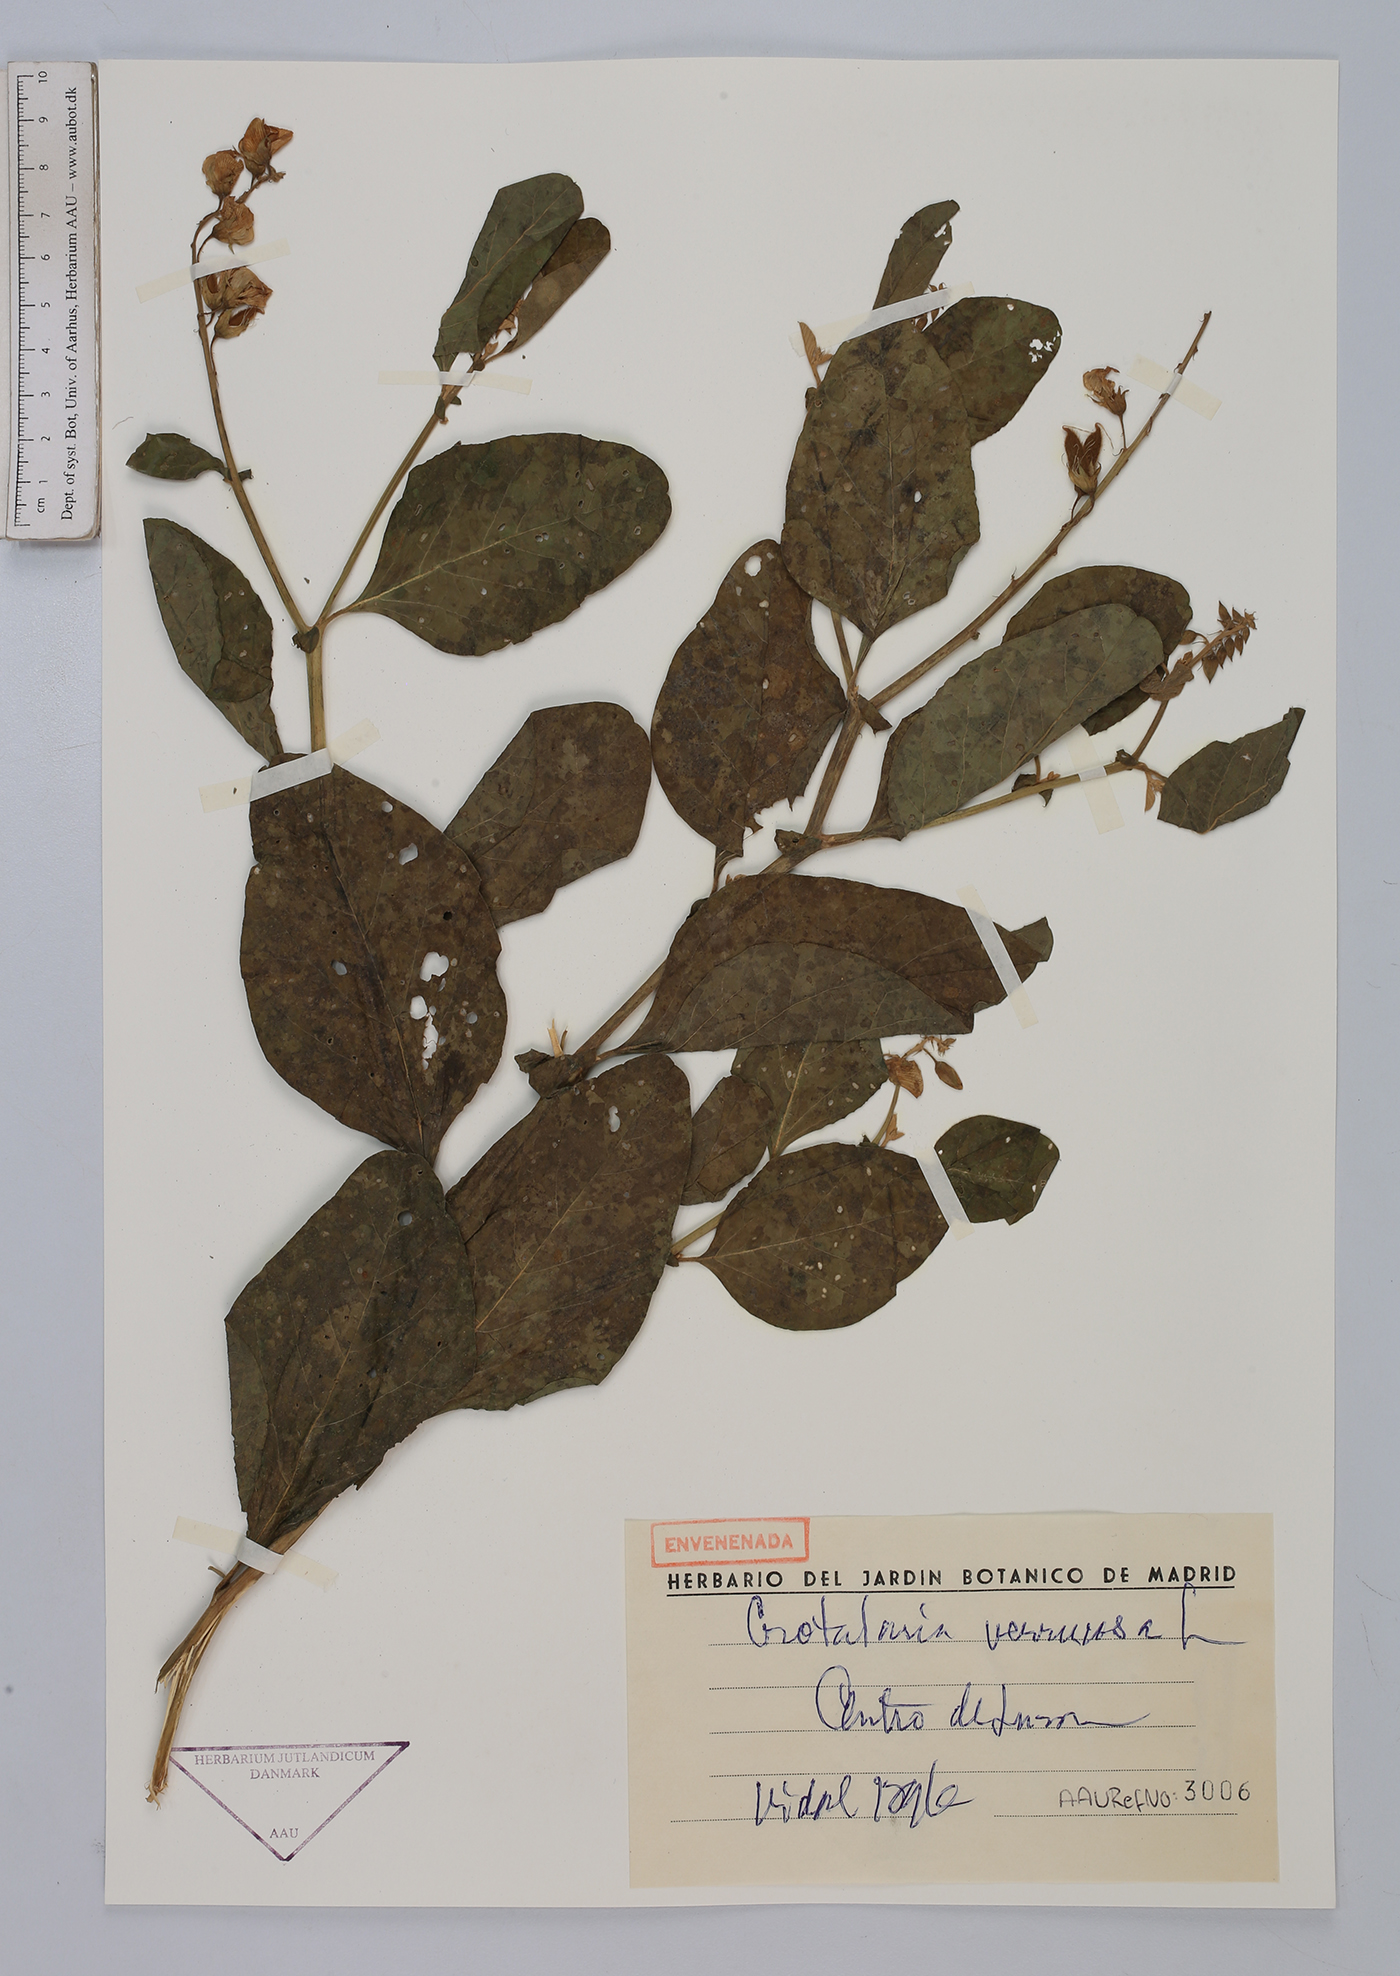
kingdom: Plantae
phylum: Tracheophyta
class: Magnoliopsida
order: Fabales
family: Fabaceae
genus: Crotalaria
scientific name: Crotalaria verrucosa
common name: Blue rattlesnake
